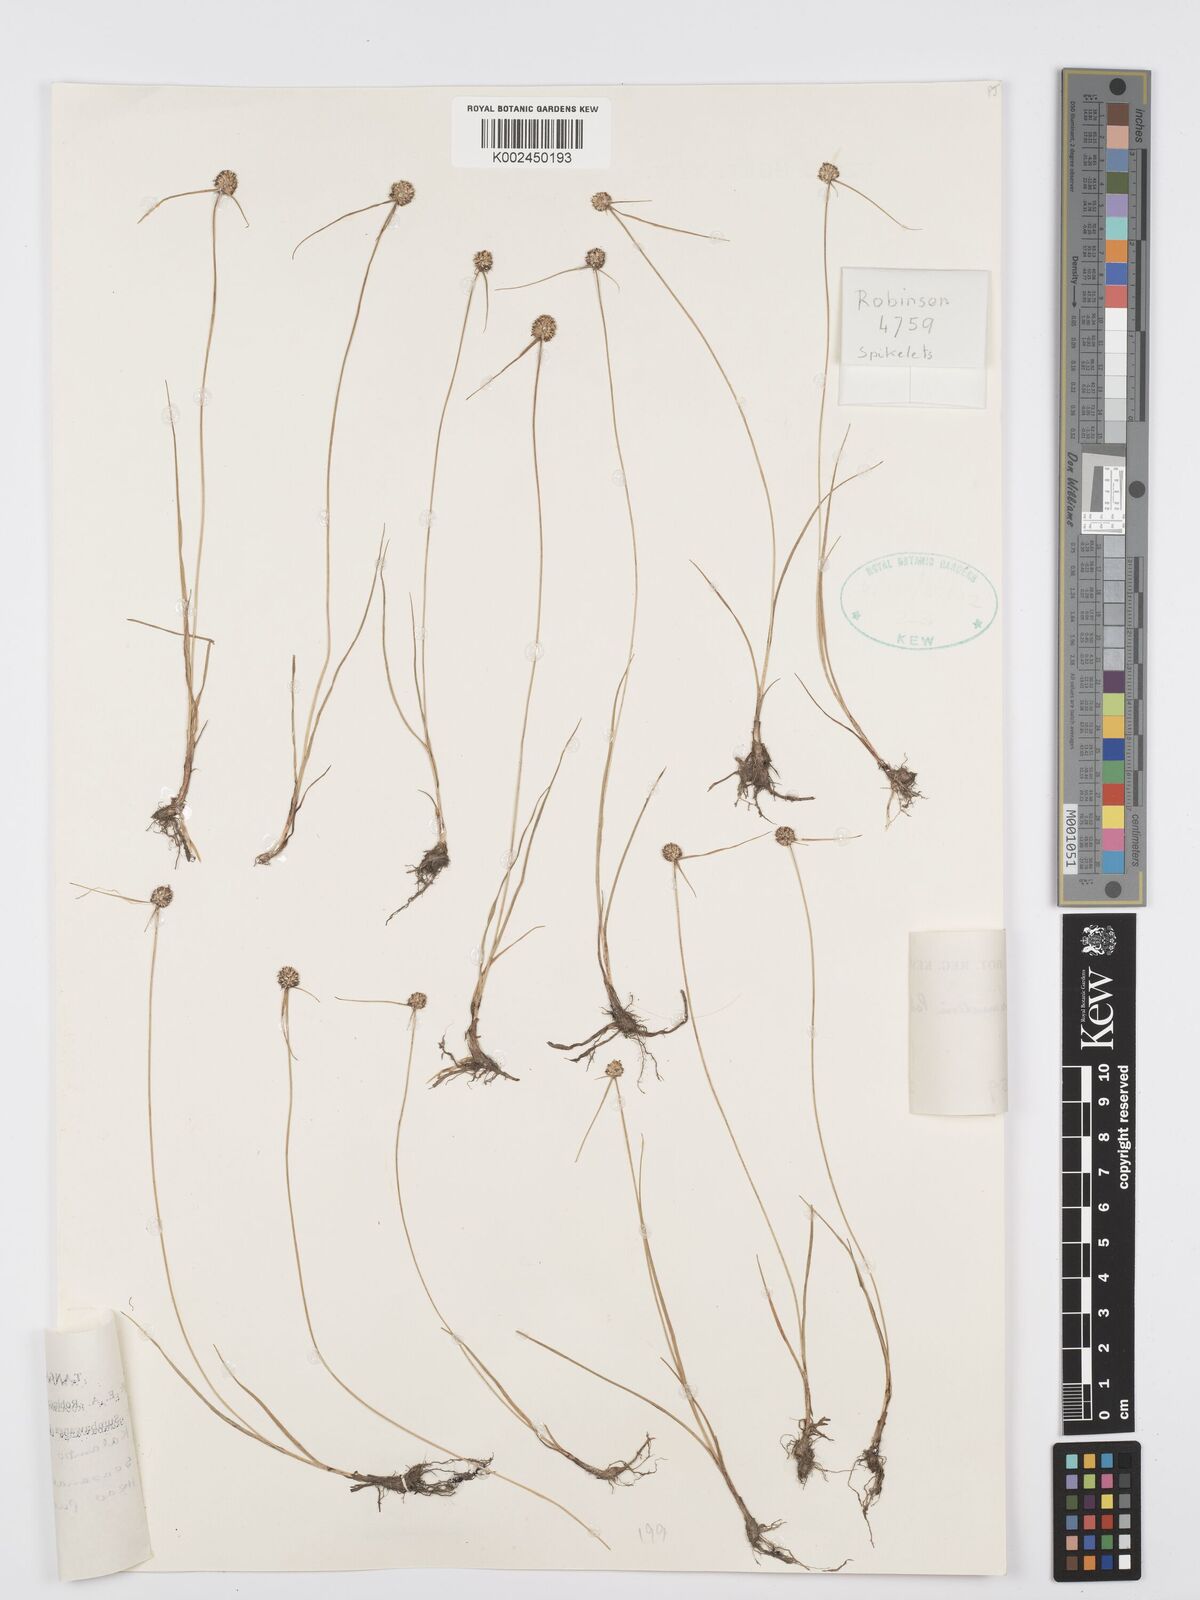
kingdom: Plantae
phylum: Tracheophyta
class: Liliopsida
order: Poales
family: Cyperaceae
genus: Cyperus
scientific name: Cyperus albiceps
